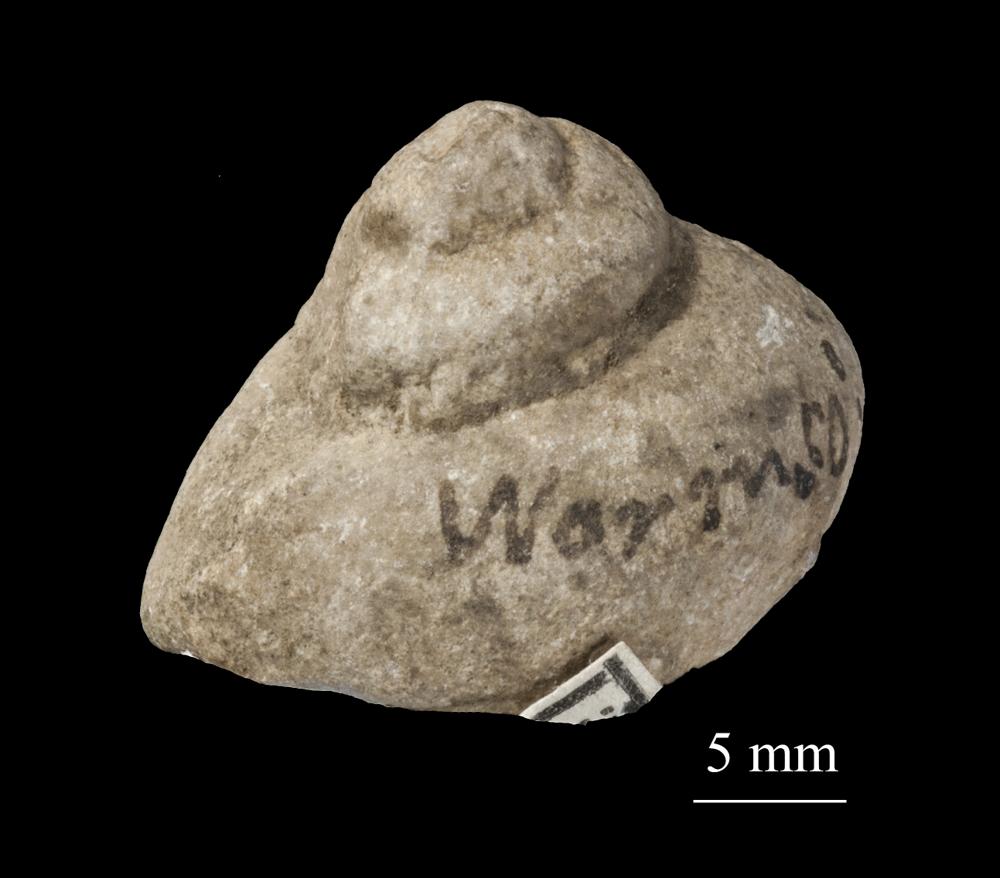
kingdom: Animalia
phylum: Mollusca
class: Gastropoda
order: Neogastropoda
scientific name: Neogastropoda
